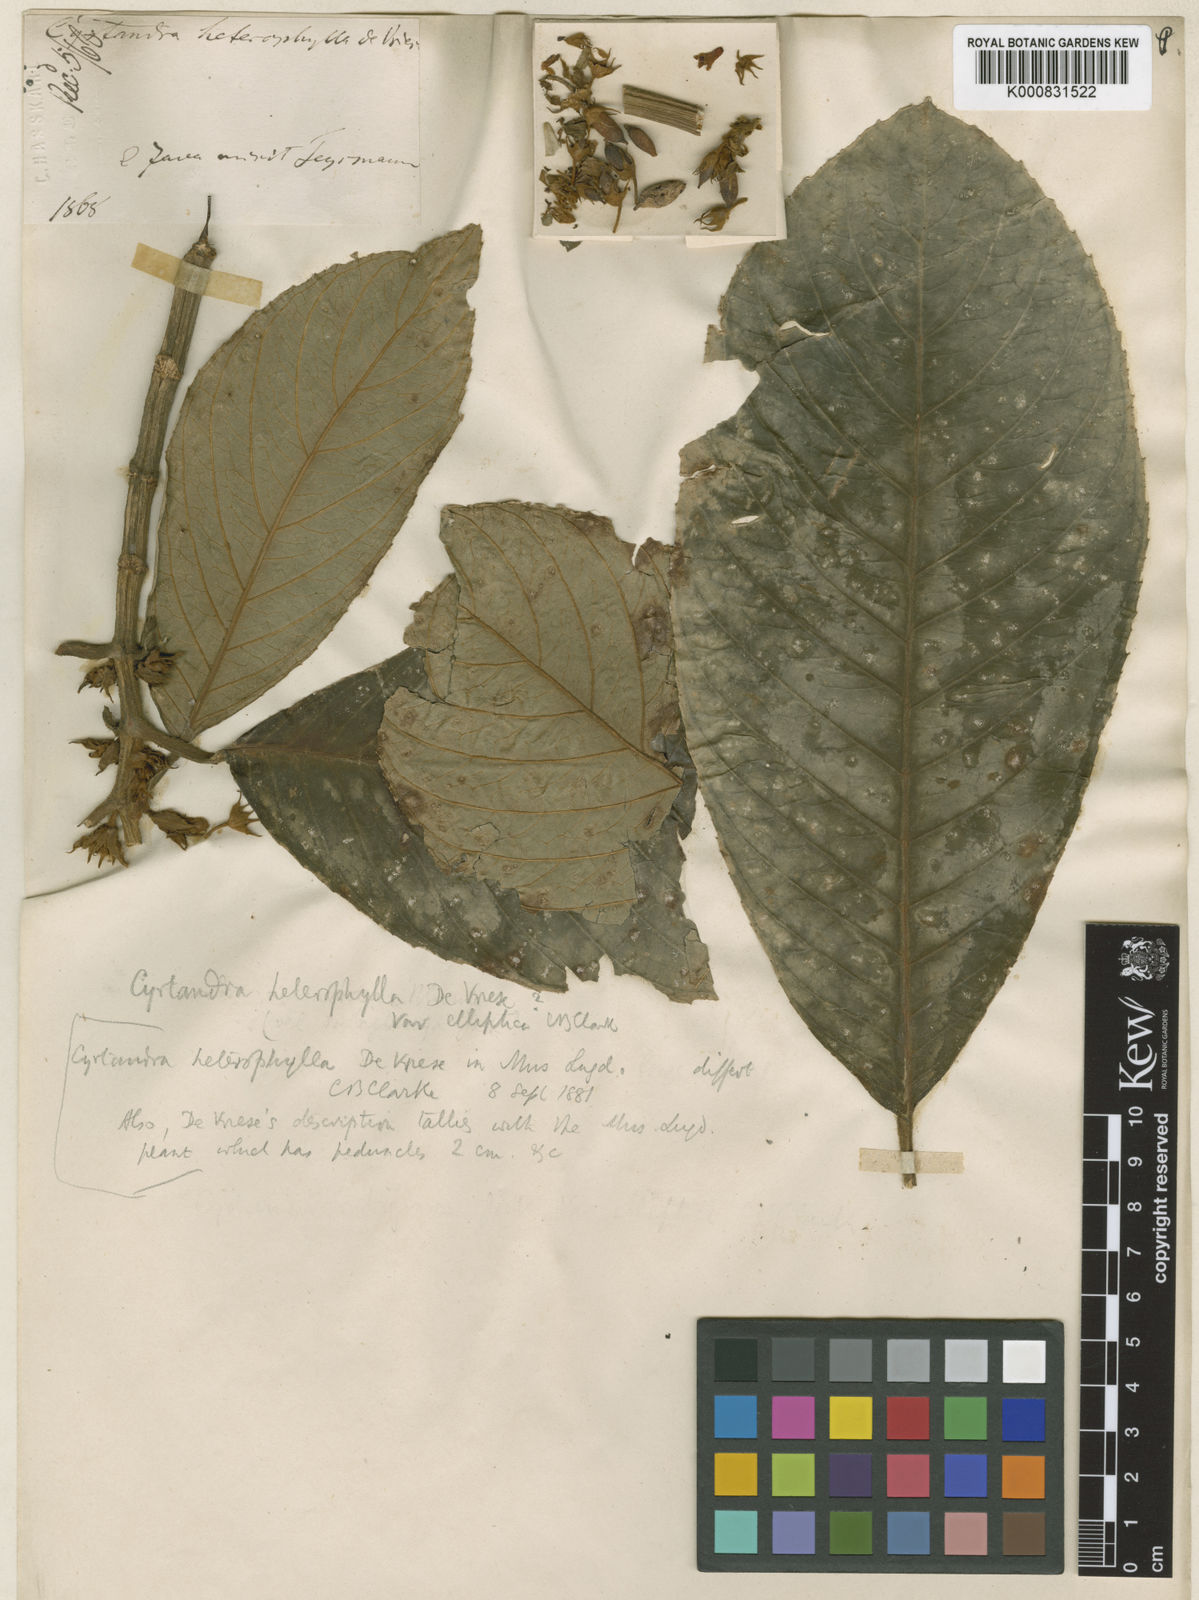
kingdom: Plantae
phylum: Tracheophyta
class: Magnoliopsida
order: Lamiales
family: Gesneriaceae
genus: Cyrtandra
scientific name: Cyrtandra heterophylla
